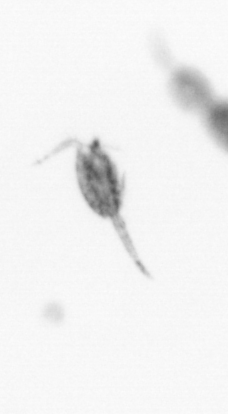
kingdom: Animalia
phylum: Arthropoda
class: Copepoda
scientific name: Copepoda
